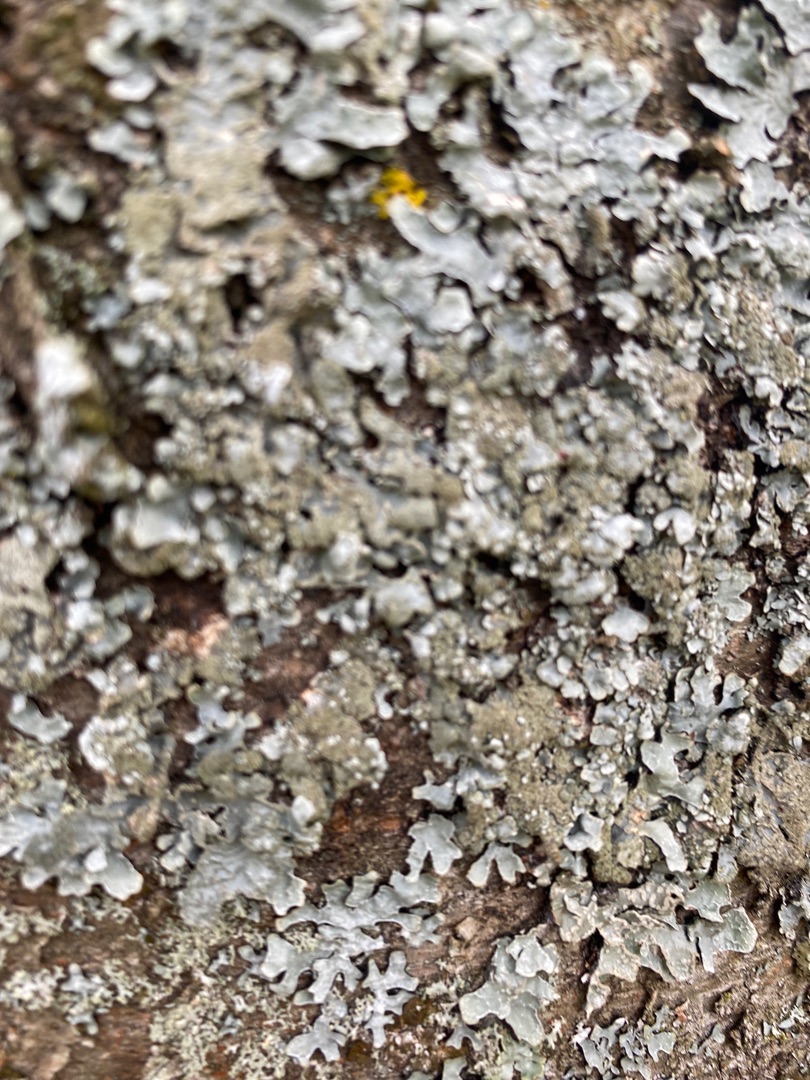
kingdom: Fungi
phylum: Ascomycota
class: Lecanoromycetes
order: Lecanorales
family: Parmeliaceae
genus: Parmelia
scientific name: Parmelia sulcata
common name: Rynket skållav
